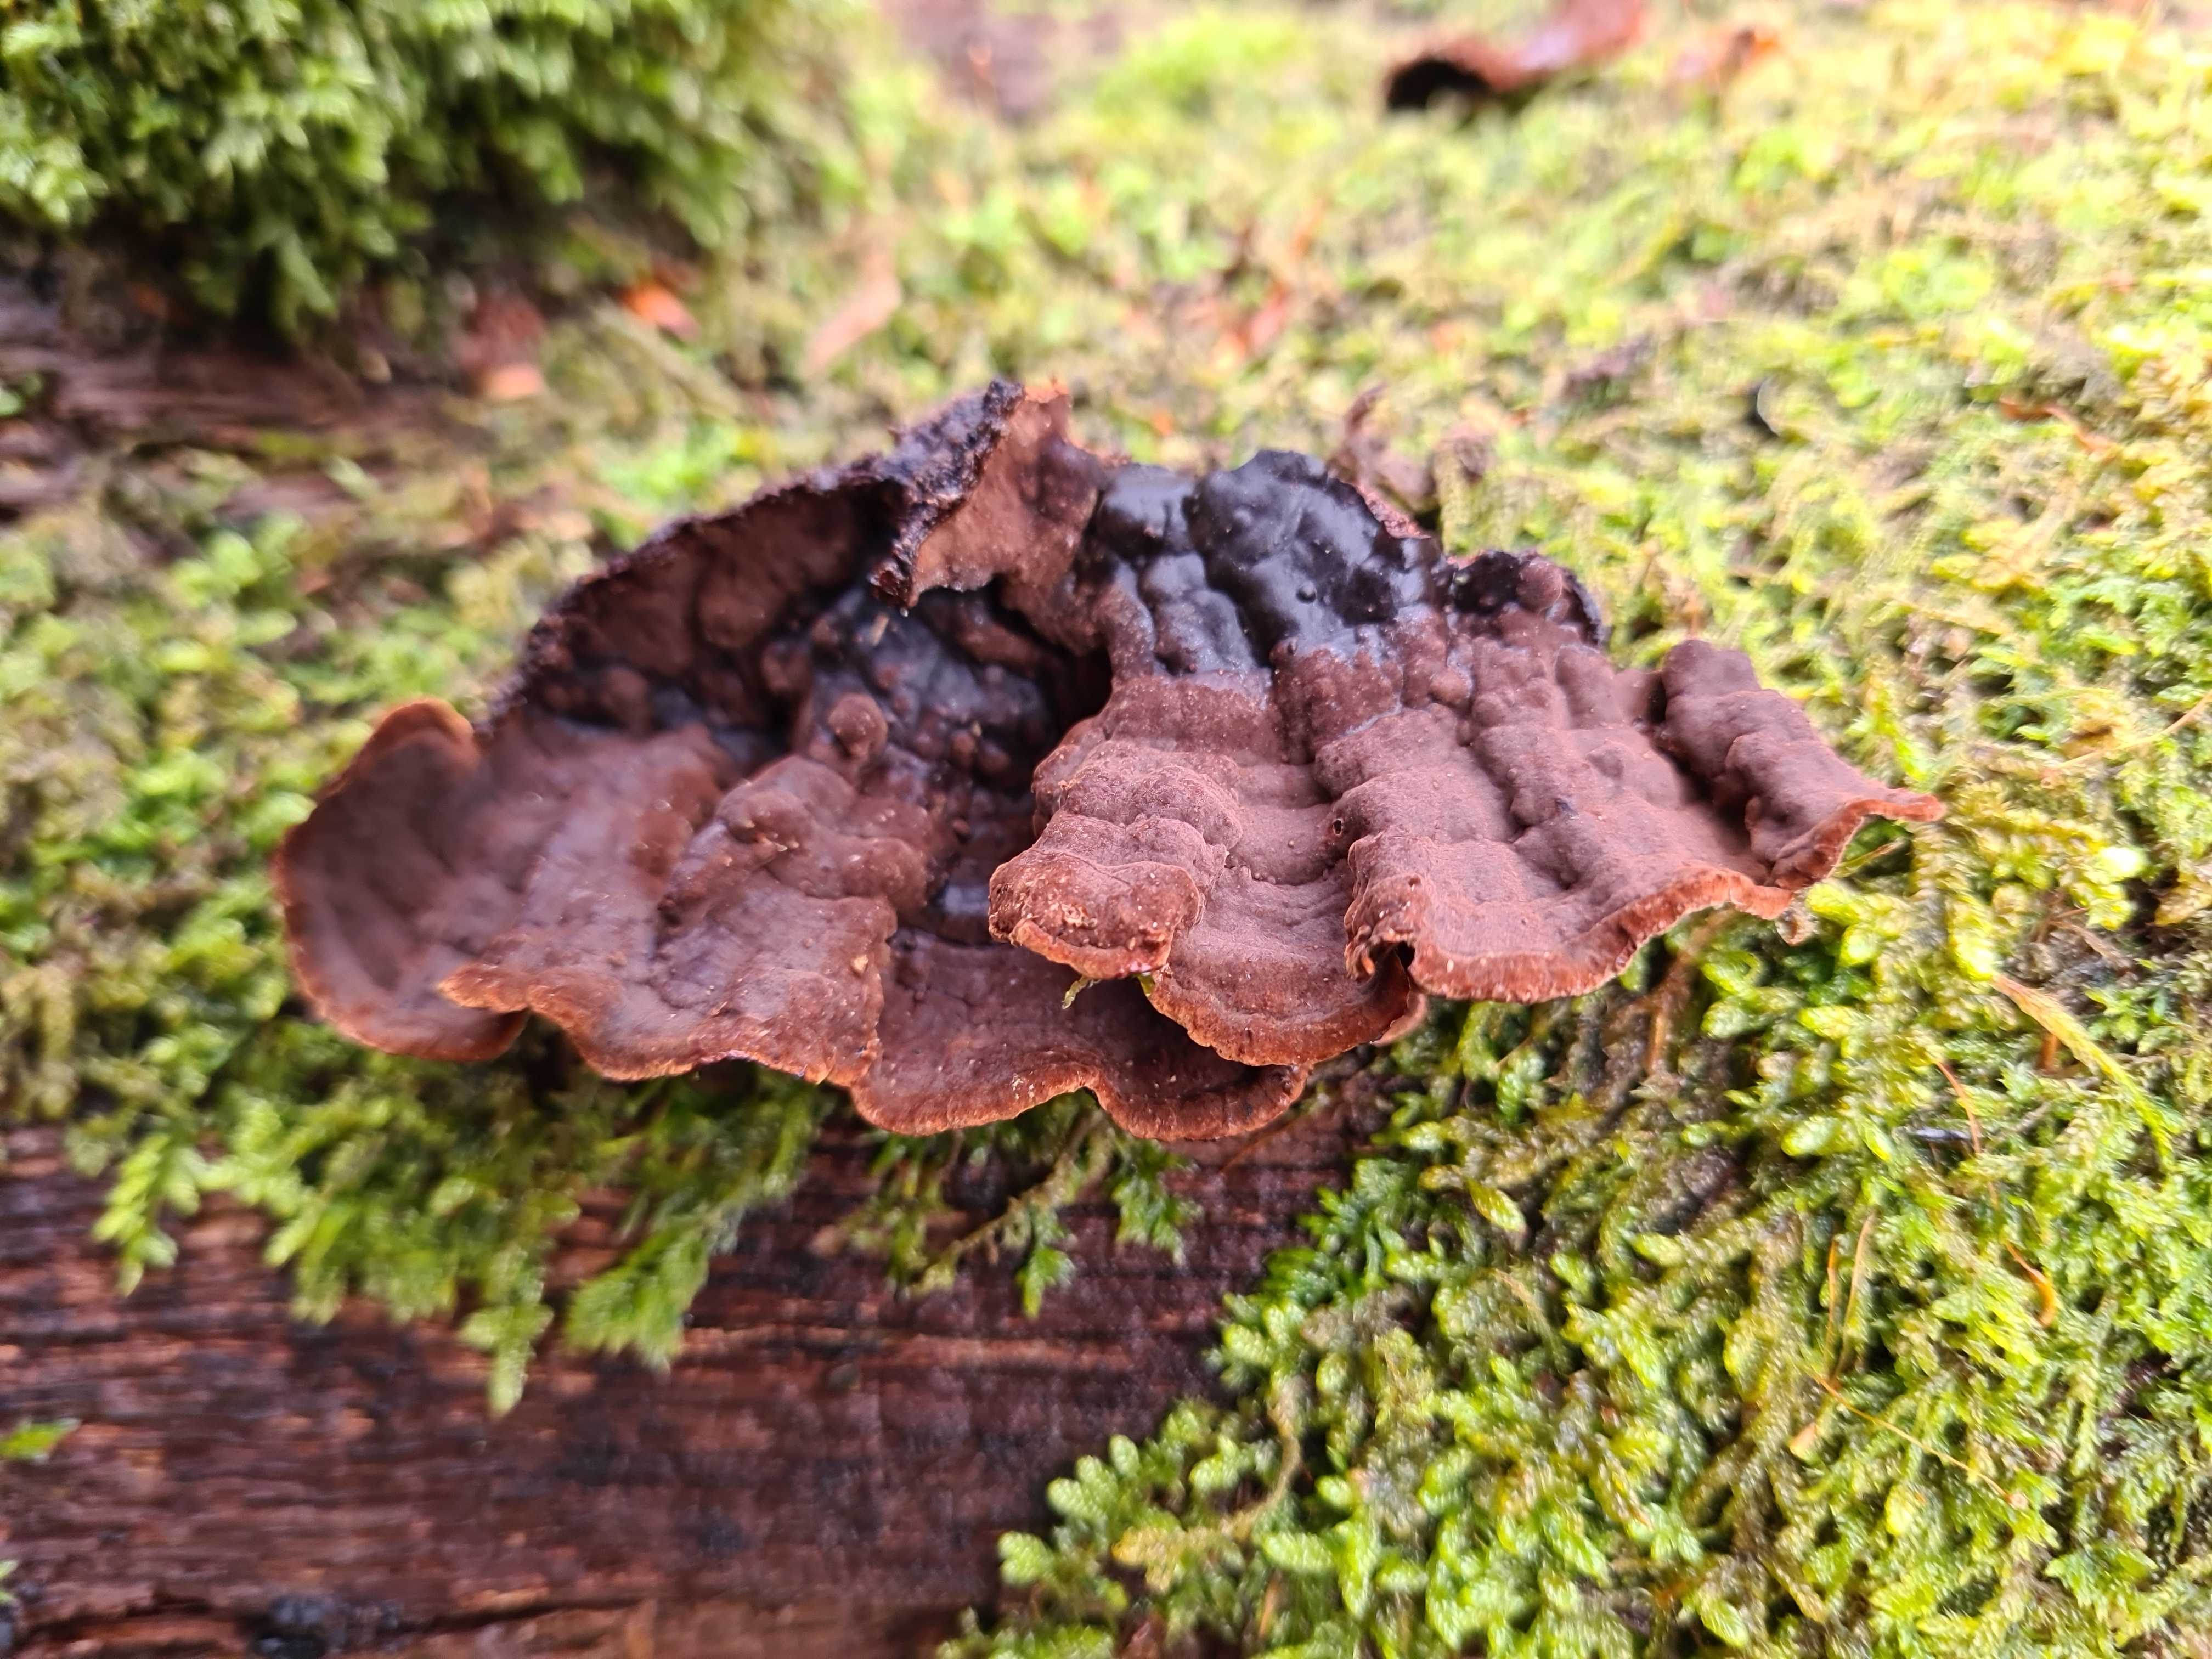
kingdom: Fungi
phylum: Basidiomycota
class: Agaricomycetes
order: Hymenochaetales
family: Hymenochaetaceae
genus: Hymenochaete
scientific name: Hymenochaete rubiginosa
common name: stiv ruslædersvamp
